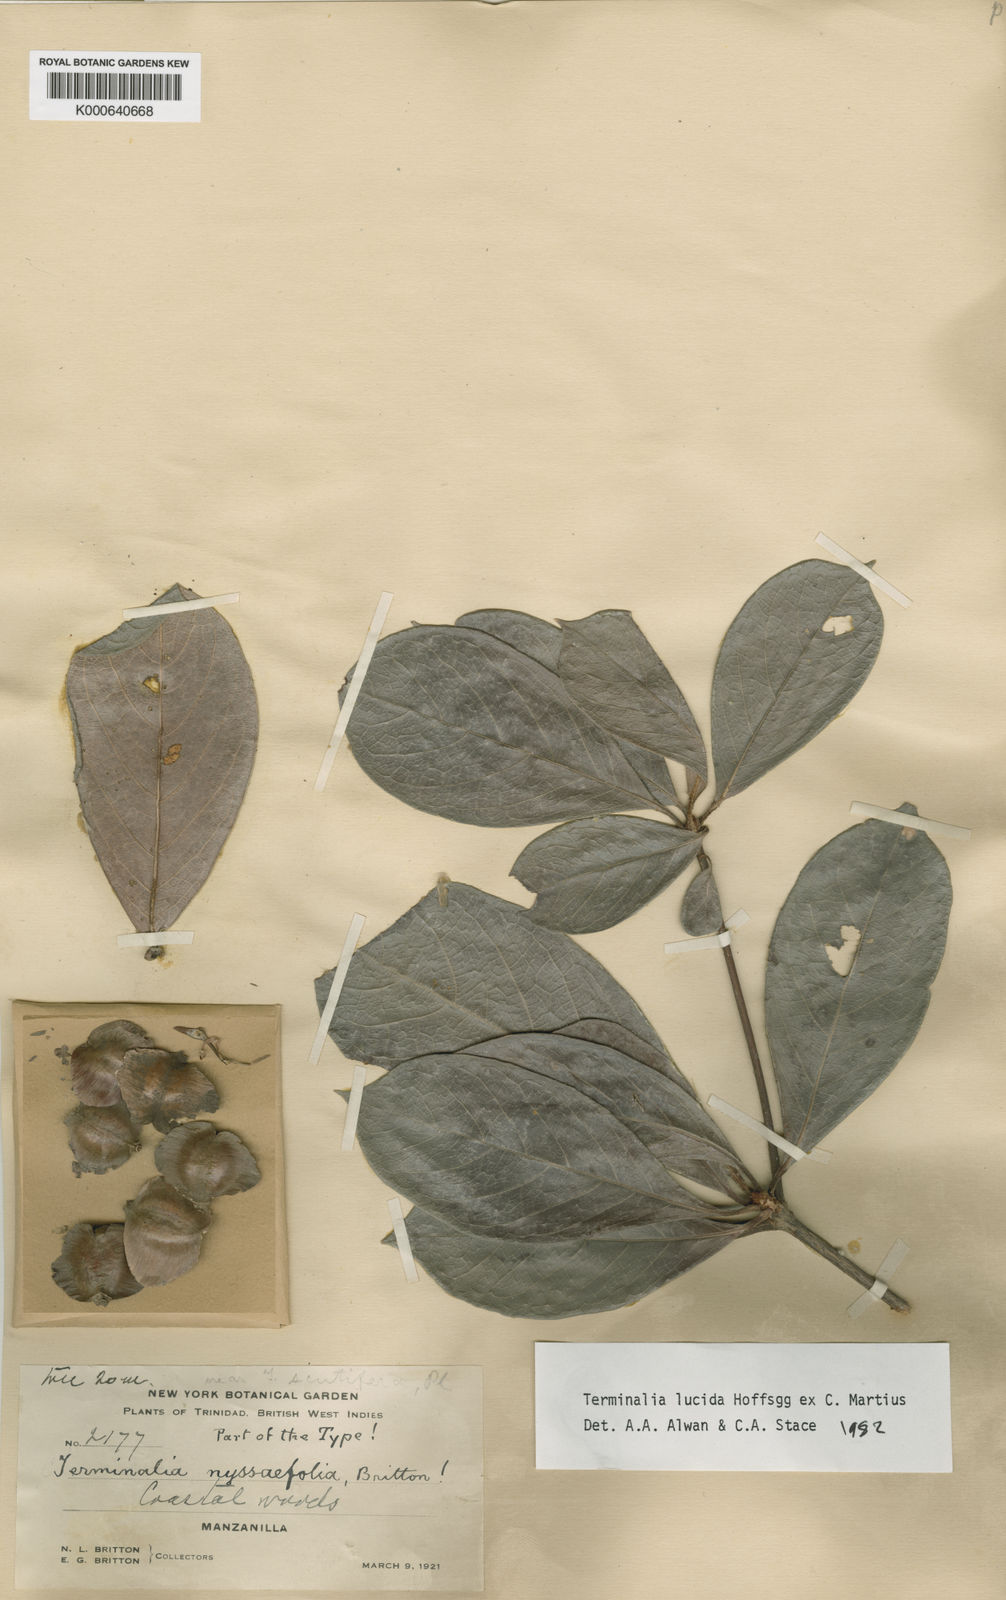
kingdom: Plantae
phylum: Tracheophyta
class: Magnoliopsida
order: Myrtales
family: Combretaceae
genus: Terminalia
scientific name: Terminalia lucida
